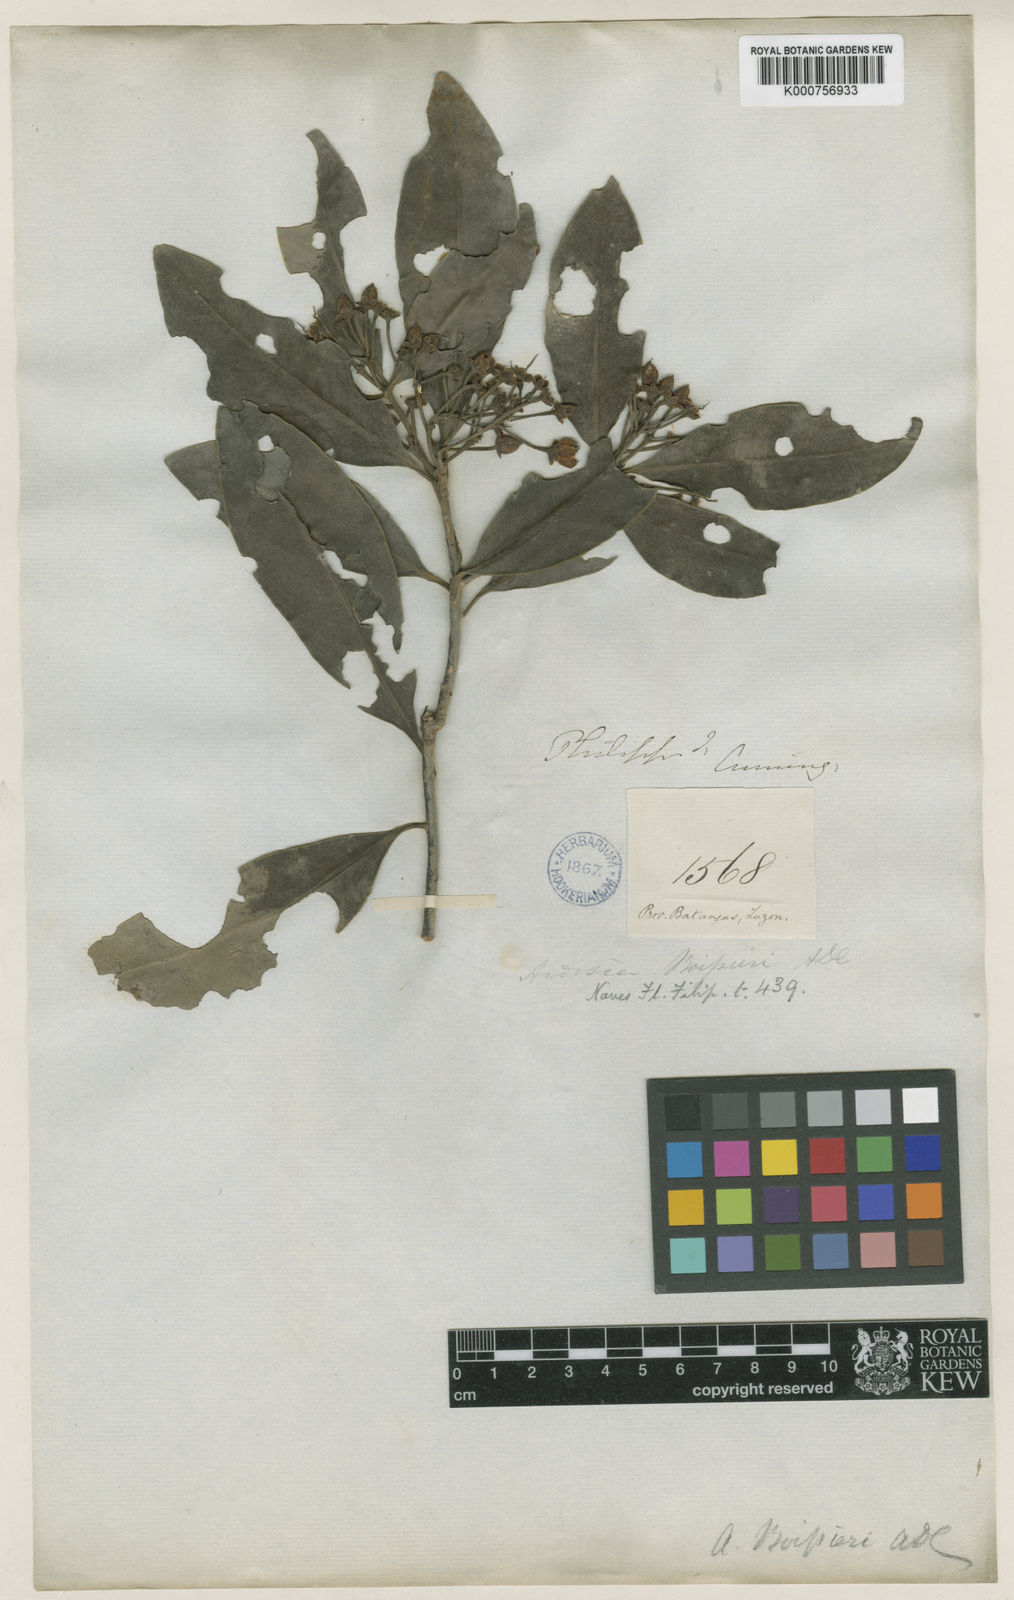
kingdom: Plantae
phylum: Tracheophyta
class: Magnoliopsida
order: Ericales
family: Primulaceae
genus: Ardisia
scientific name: Ardisia elliptica
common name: Shoebutton
